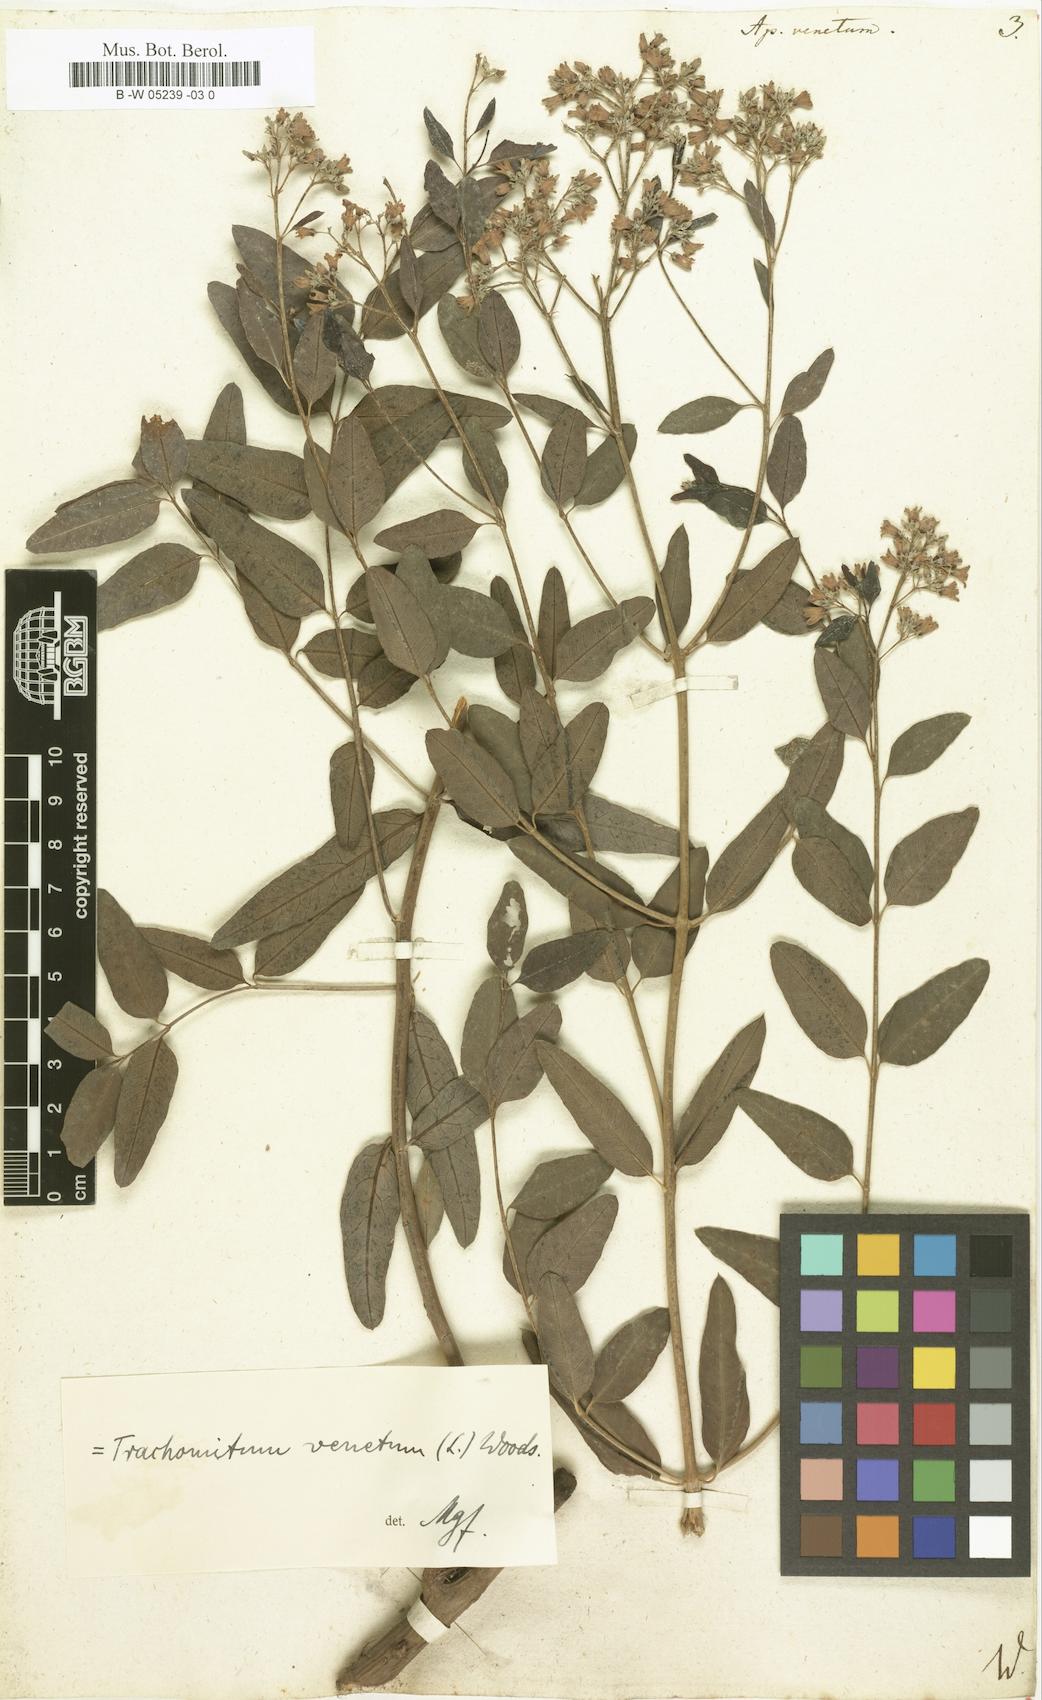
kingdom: Plantae
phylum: Tracheophyta
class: Magnoliopsida
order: Gentianales
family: Apocynaceae
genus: Poacynum
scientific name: Poacynum venetum
